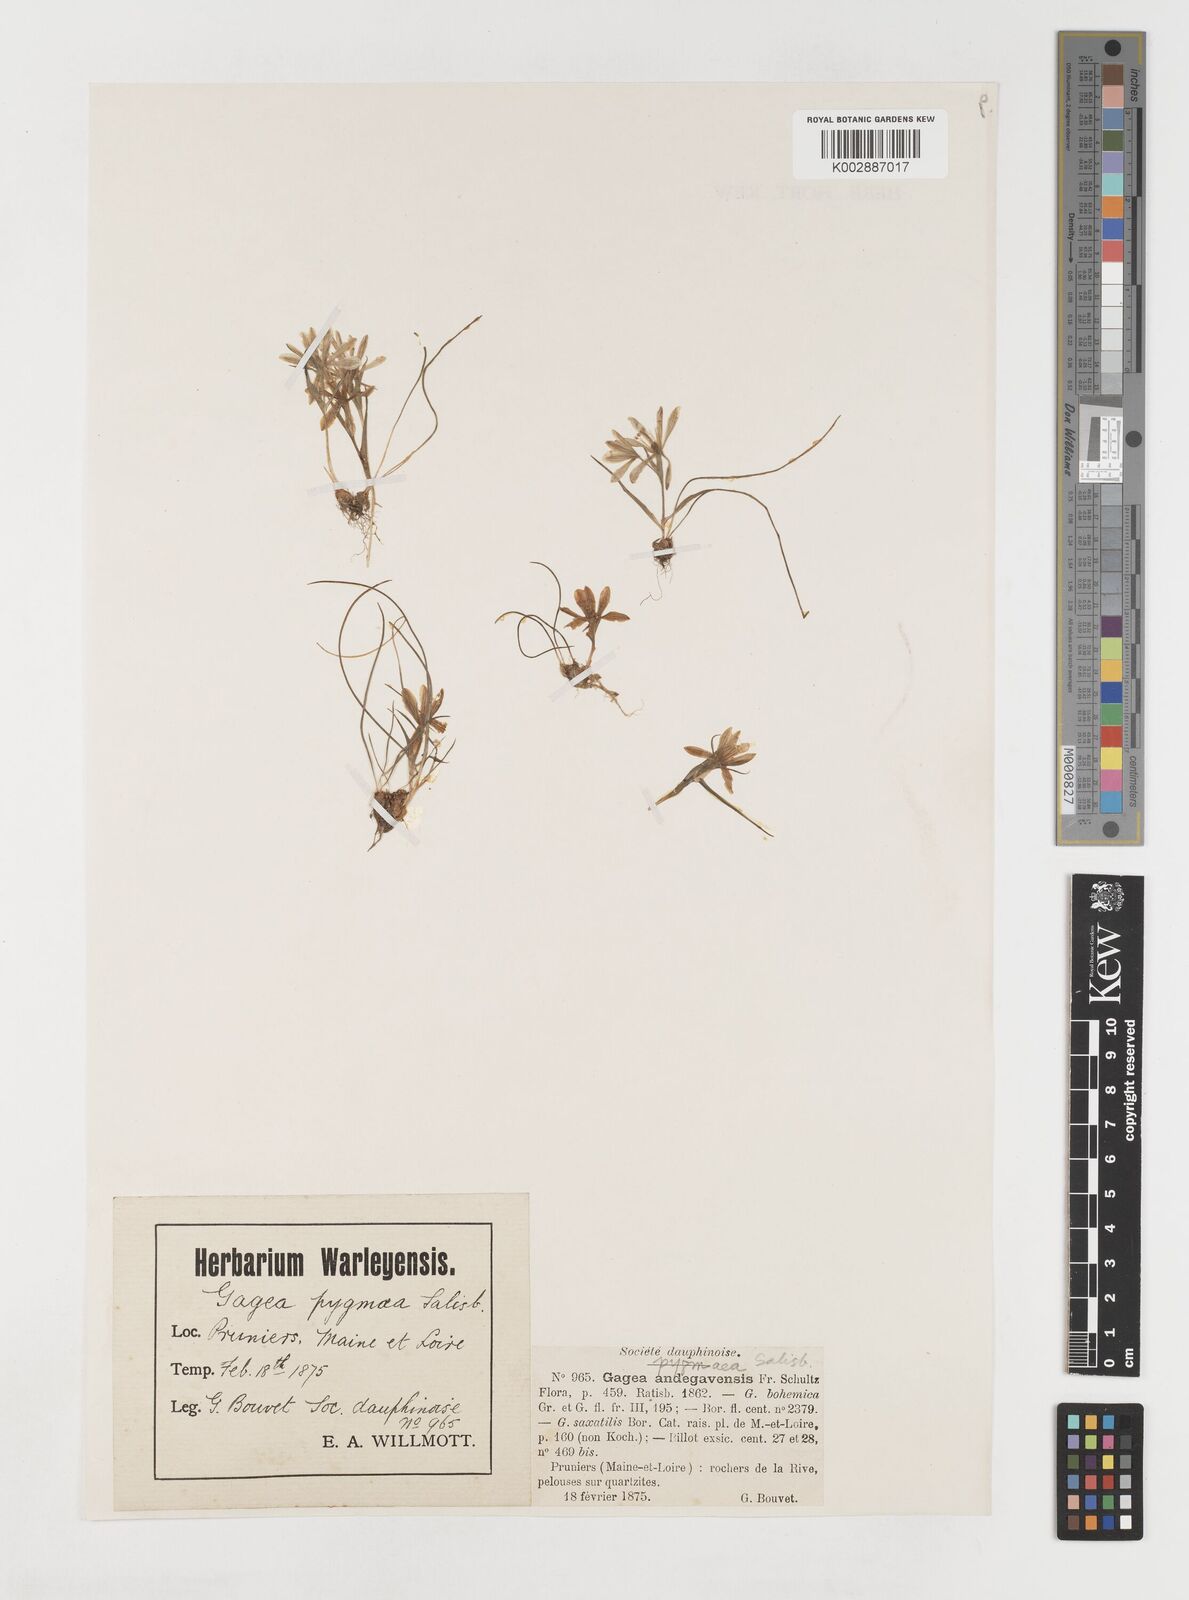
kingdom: Plantae
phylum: Tracheophyta
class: Liliopsida
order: Liliales
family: Liliaceae
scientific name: Liliaceae
